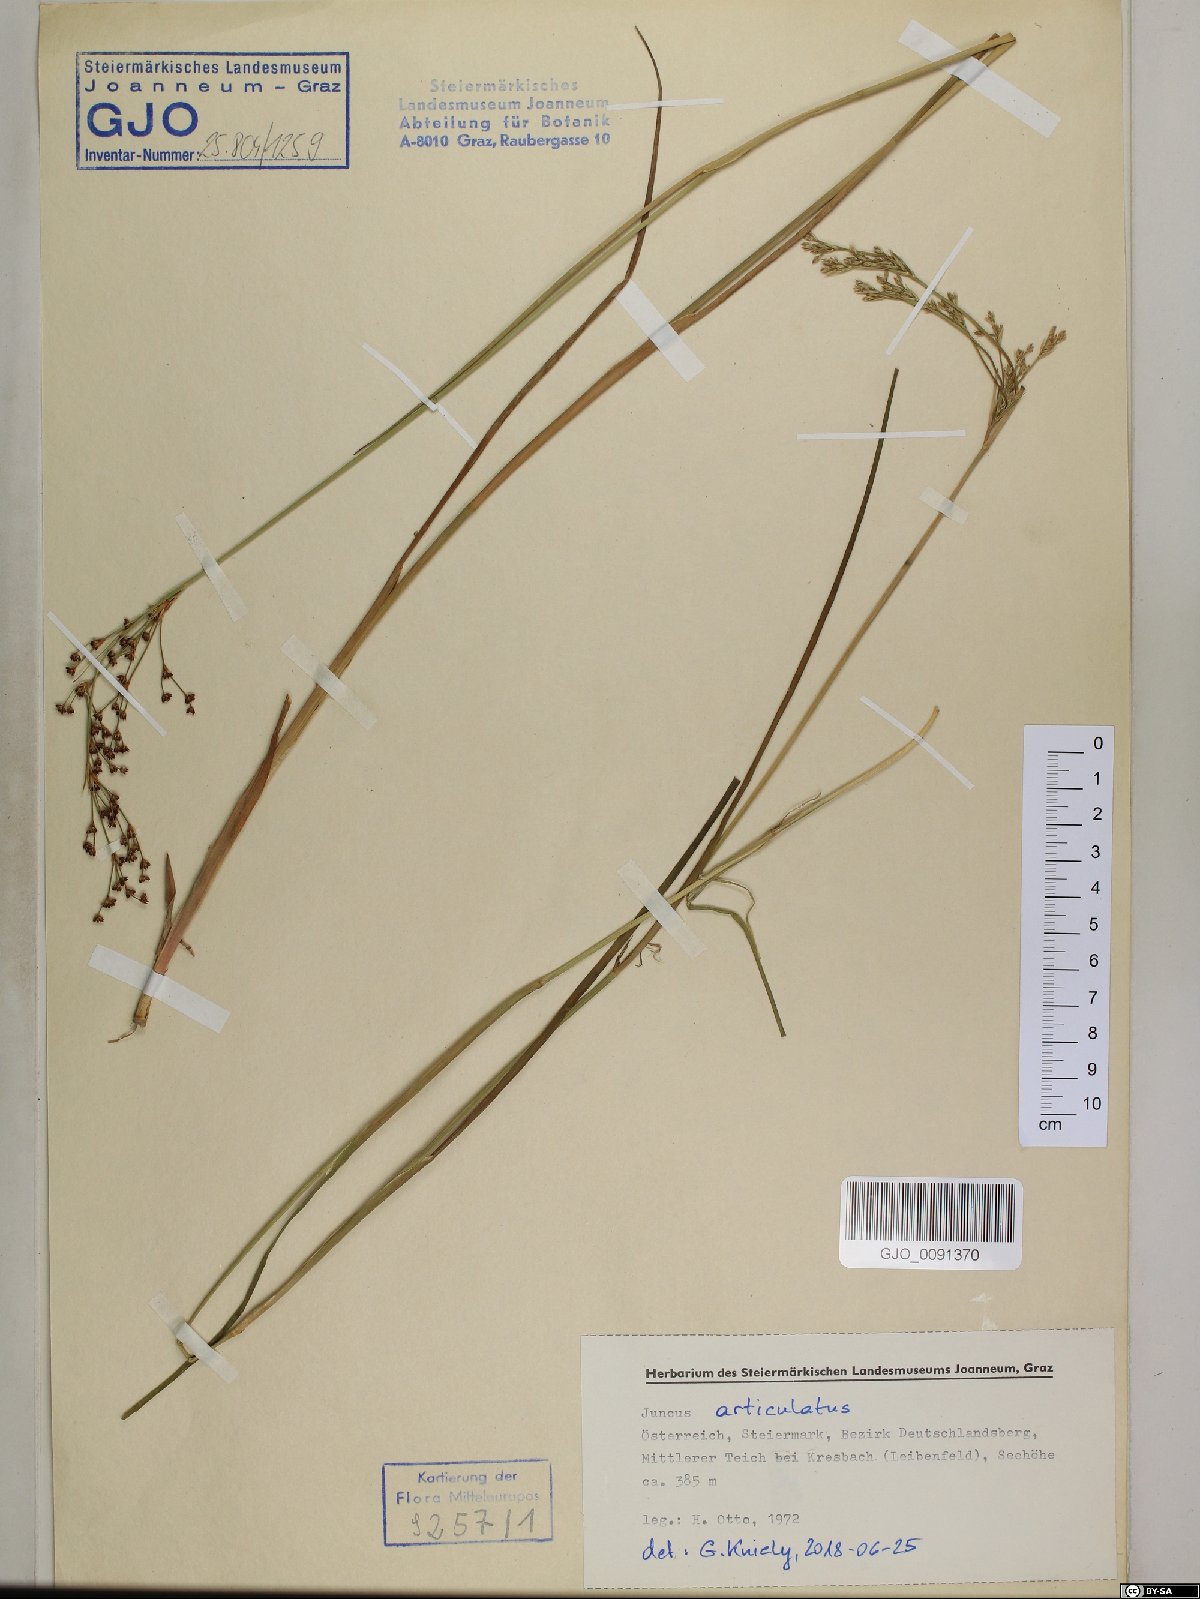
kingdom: Plantae
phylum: Tracheophyta
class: Liliopsida
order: Poales
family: Juncaceae
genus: Juncus
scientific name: Juncus articulatus
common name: Jointed rush
